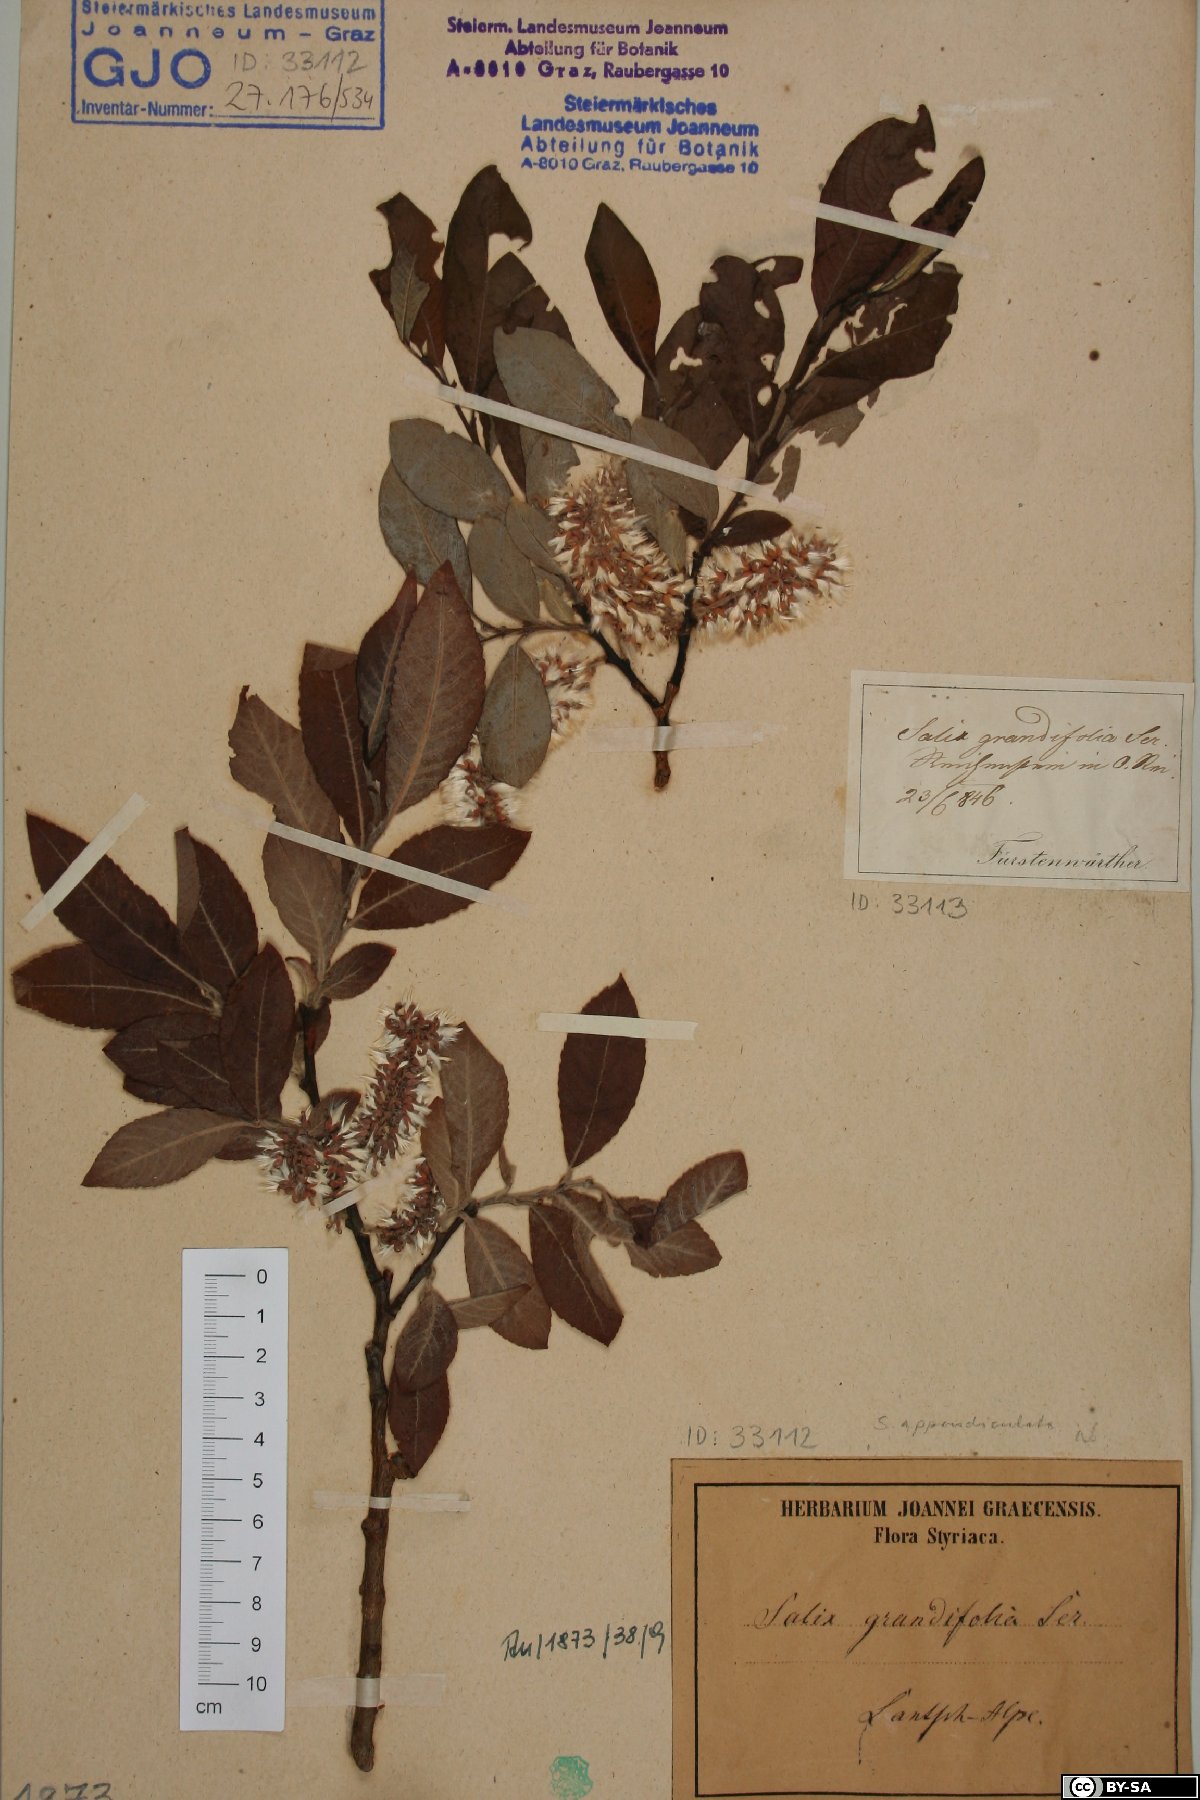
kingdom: Plantae
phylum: Tracheophyta
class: Magnoliopsida
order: Malpighiales
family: Salicaceae
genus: Salix
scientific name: Salix appendiculata
